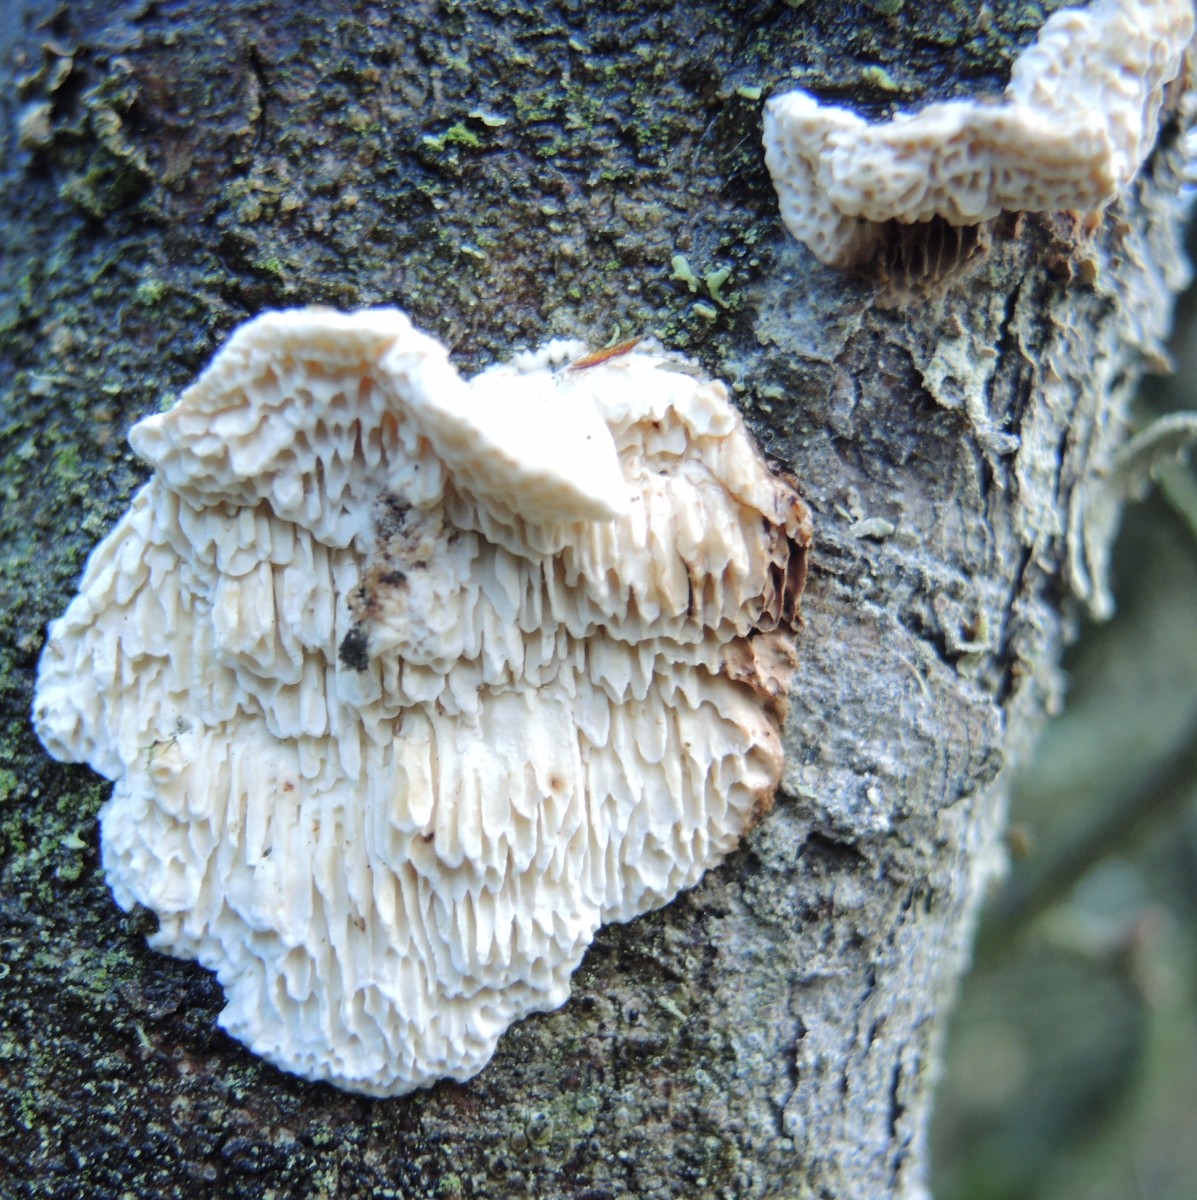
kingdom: Fungi
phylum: Basidiomycota
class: Agaricomycetes
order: Polyporales
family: Fomitopsidaceae
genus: Fomitopsis
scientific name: Fomitopsis
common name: fyrre-skiveporesvamp
